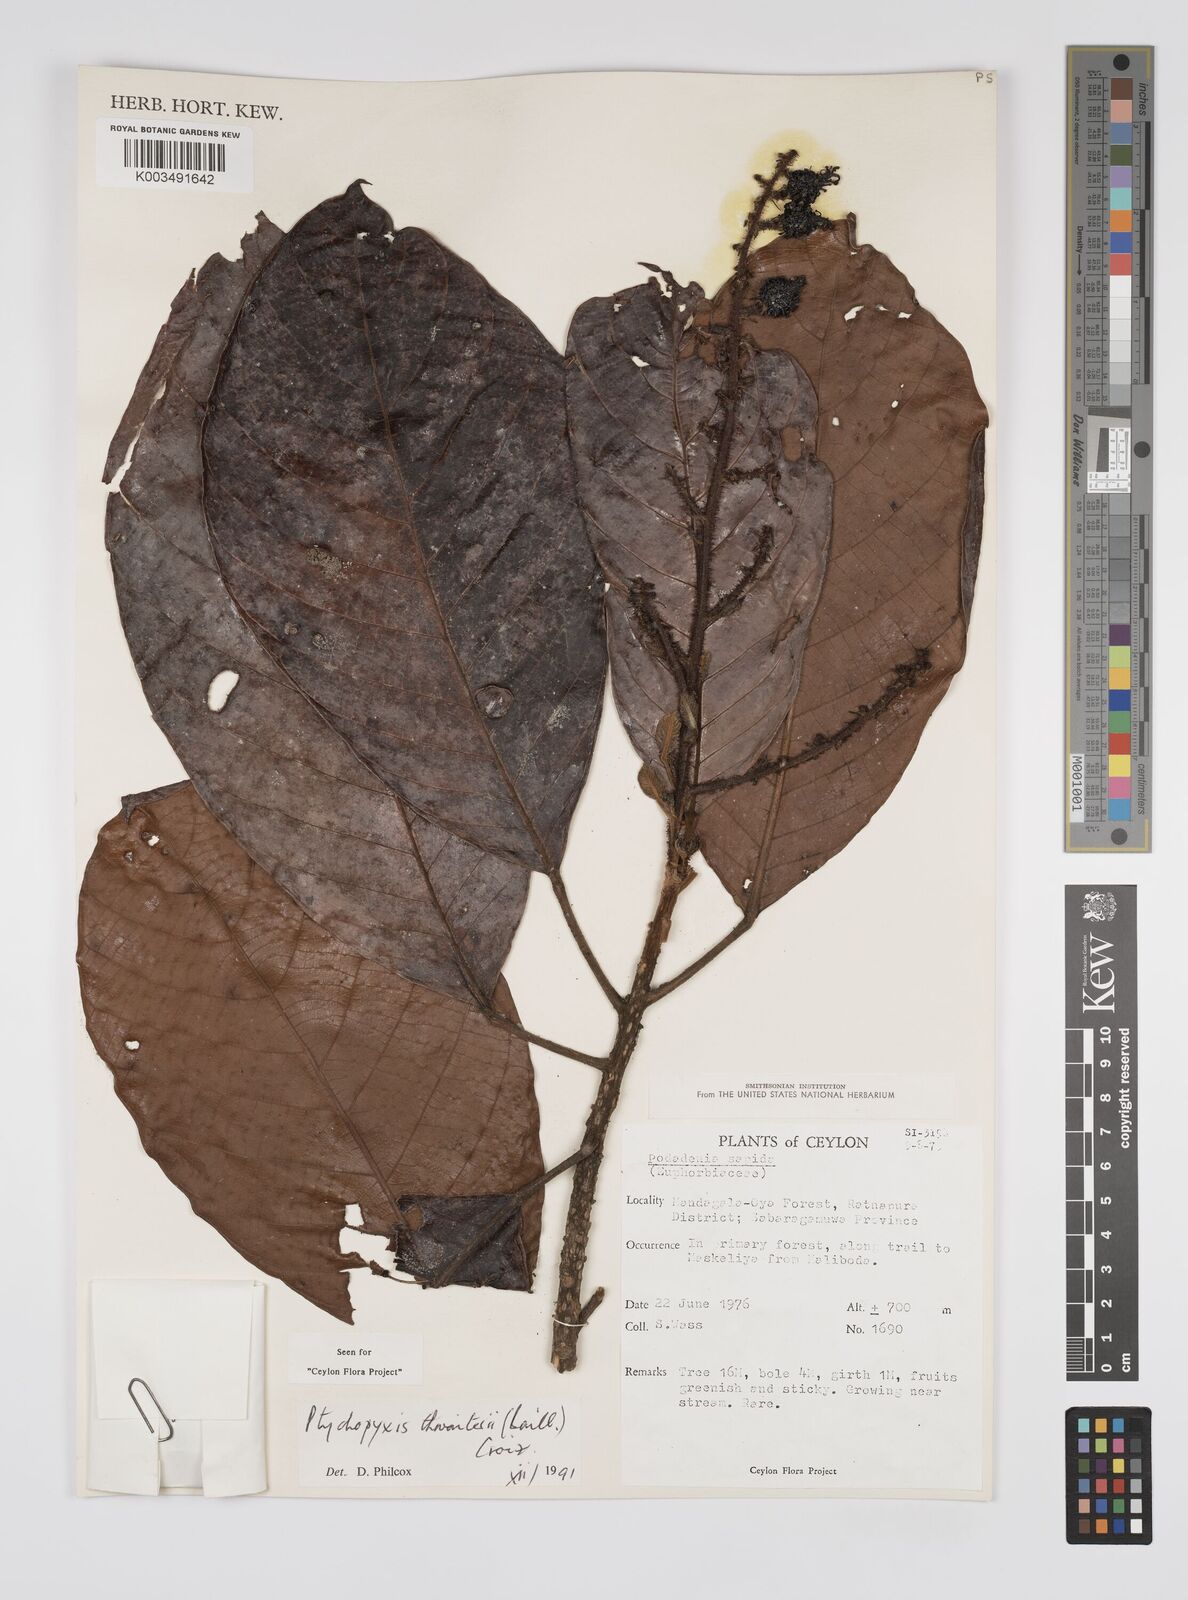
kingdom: Plantae
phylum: Tracheophyta
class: Magnoliopsida
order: Malpighiales
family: Euphorbiaceae
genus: Podadenia
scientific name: Podadenia sapida
